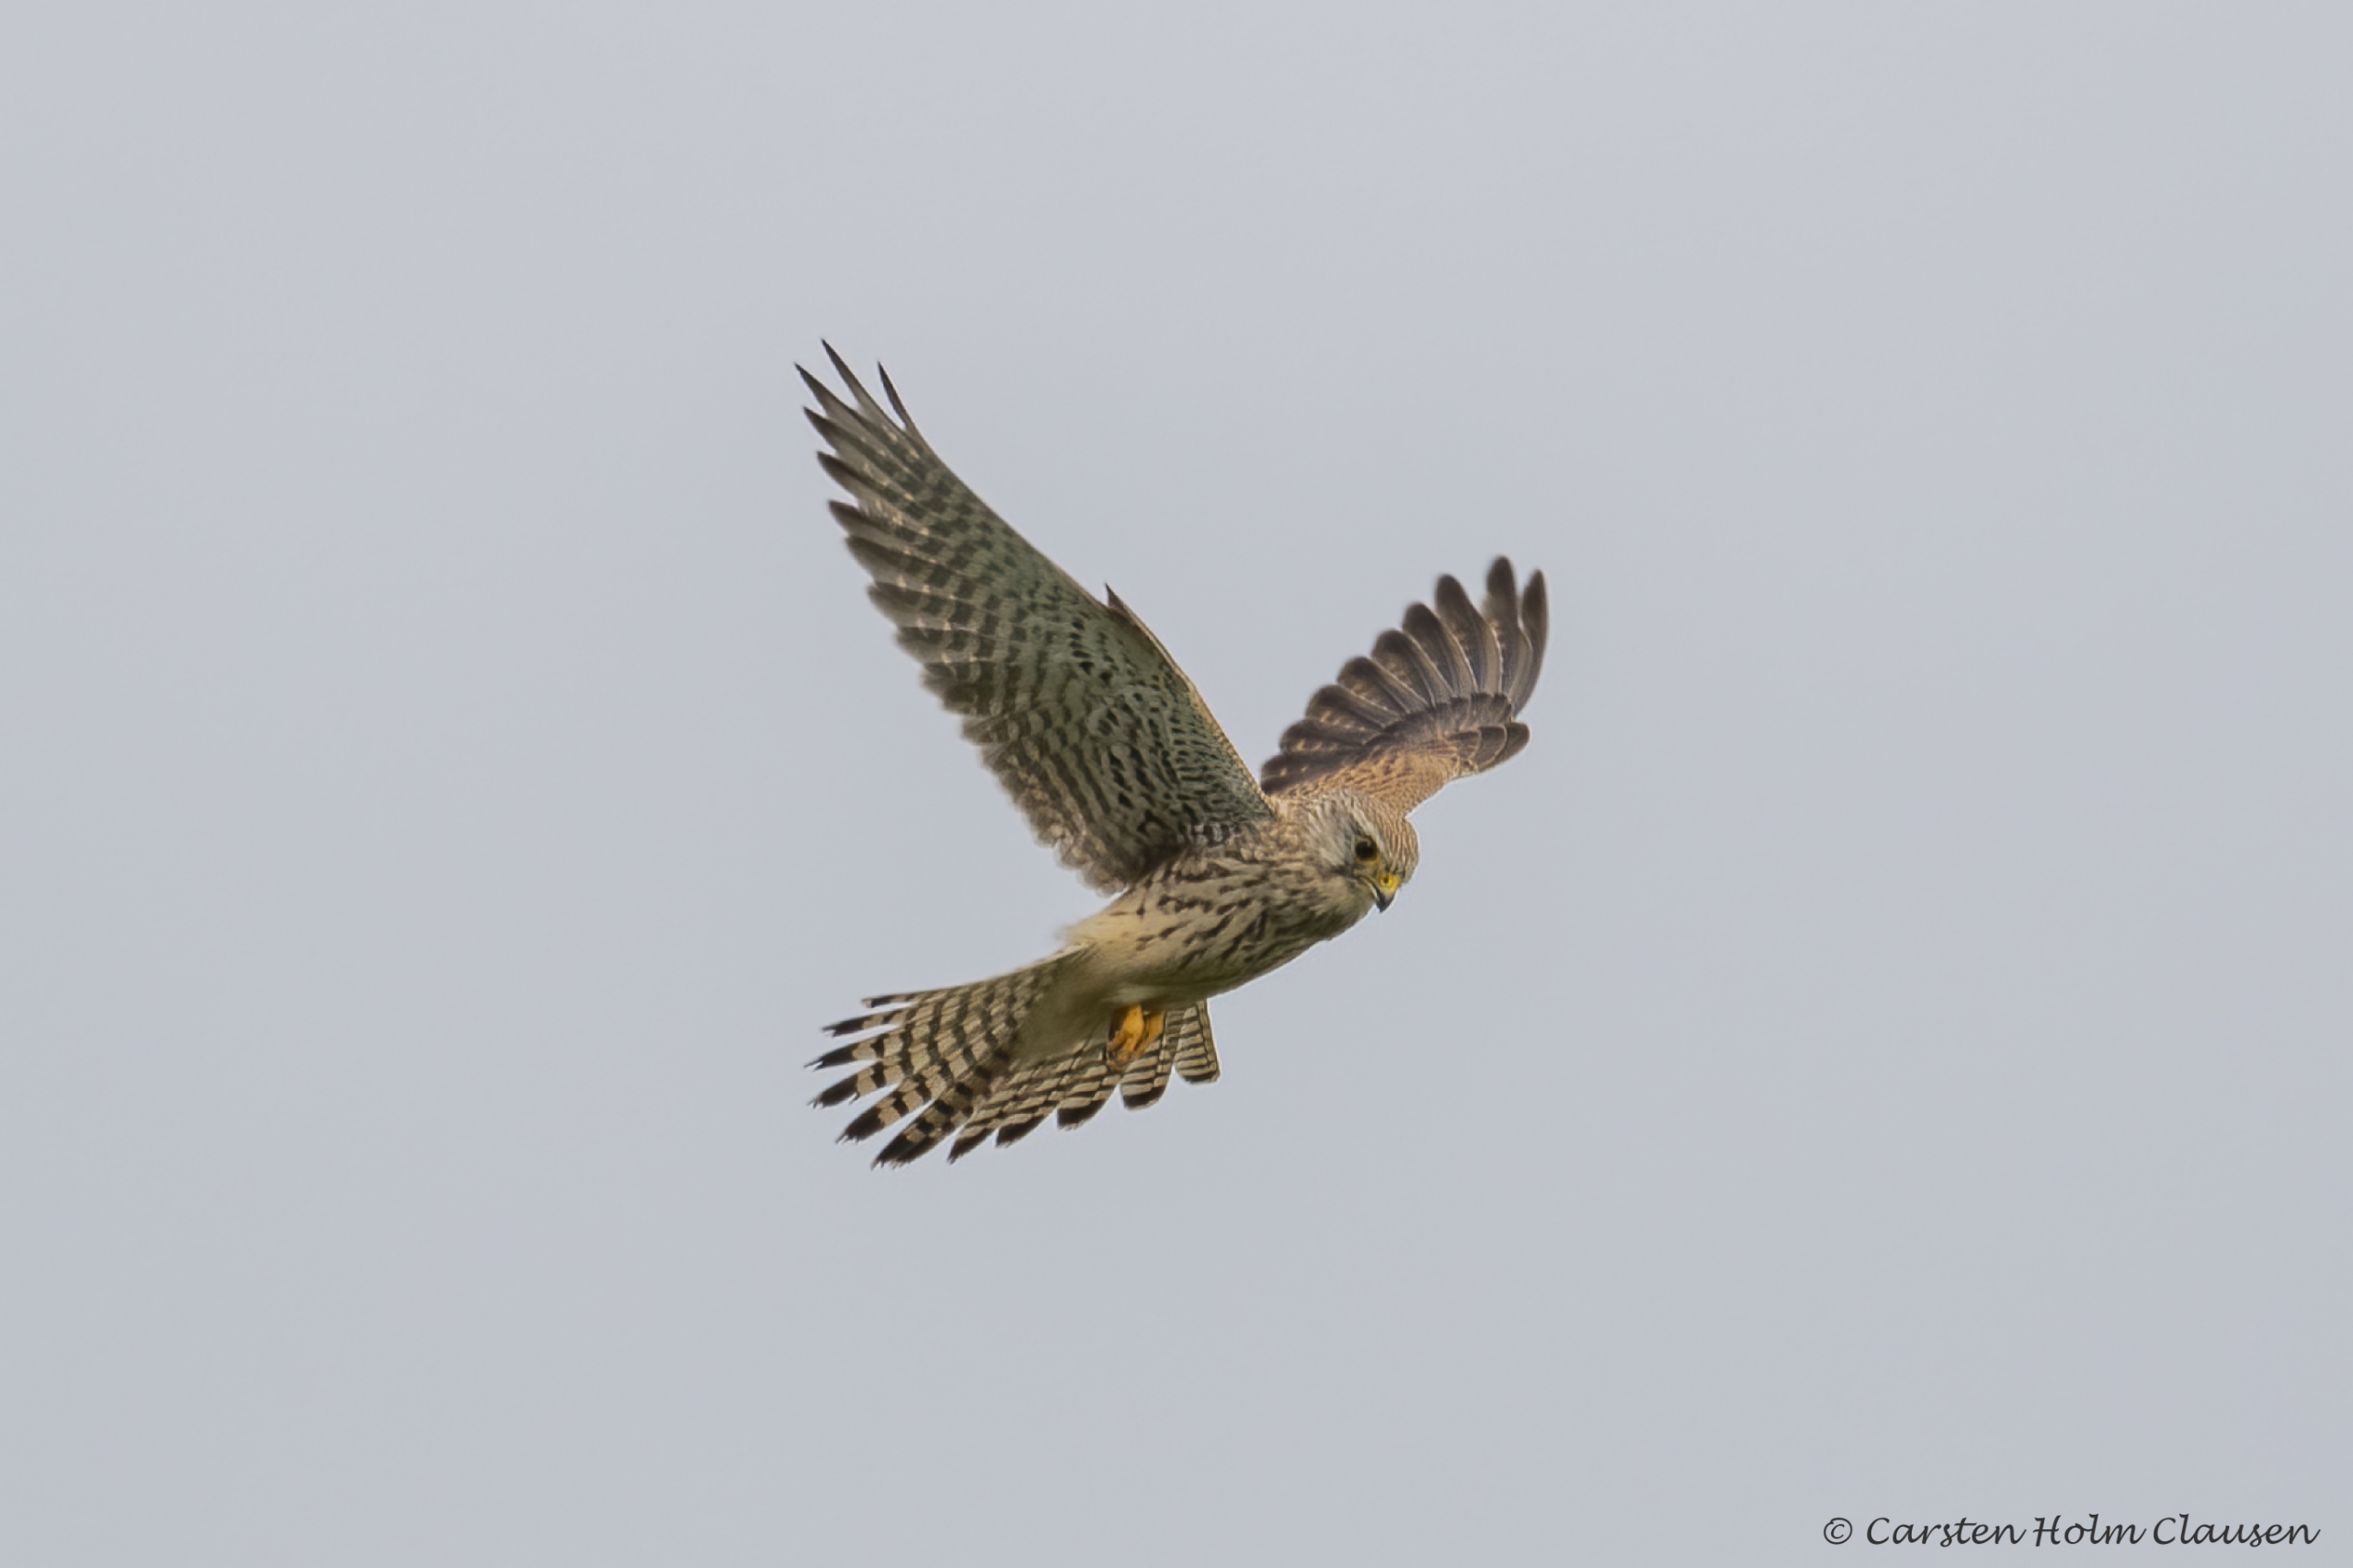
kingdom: Animalia
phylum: Chordata
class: Aves
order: Falconiformes
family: Falconidae
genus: Falco
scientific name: Falco tinnunculus
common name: Tårnfalk
